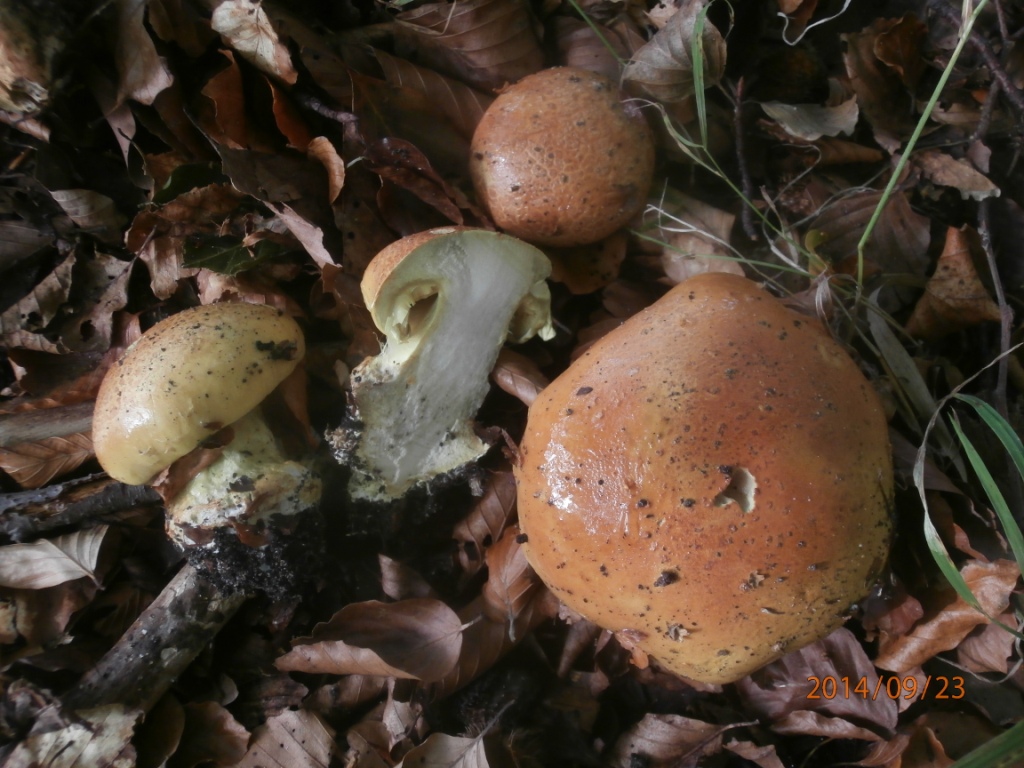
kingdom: Fungi
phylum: Basidiomycota
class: Agaricomycetes
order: Agaricales
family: Cortinariaceae
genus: Calonarius
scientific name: Calonarius elegantissimus
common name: orangegylden slørhat
